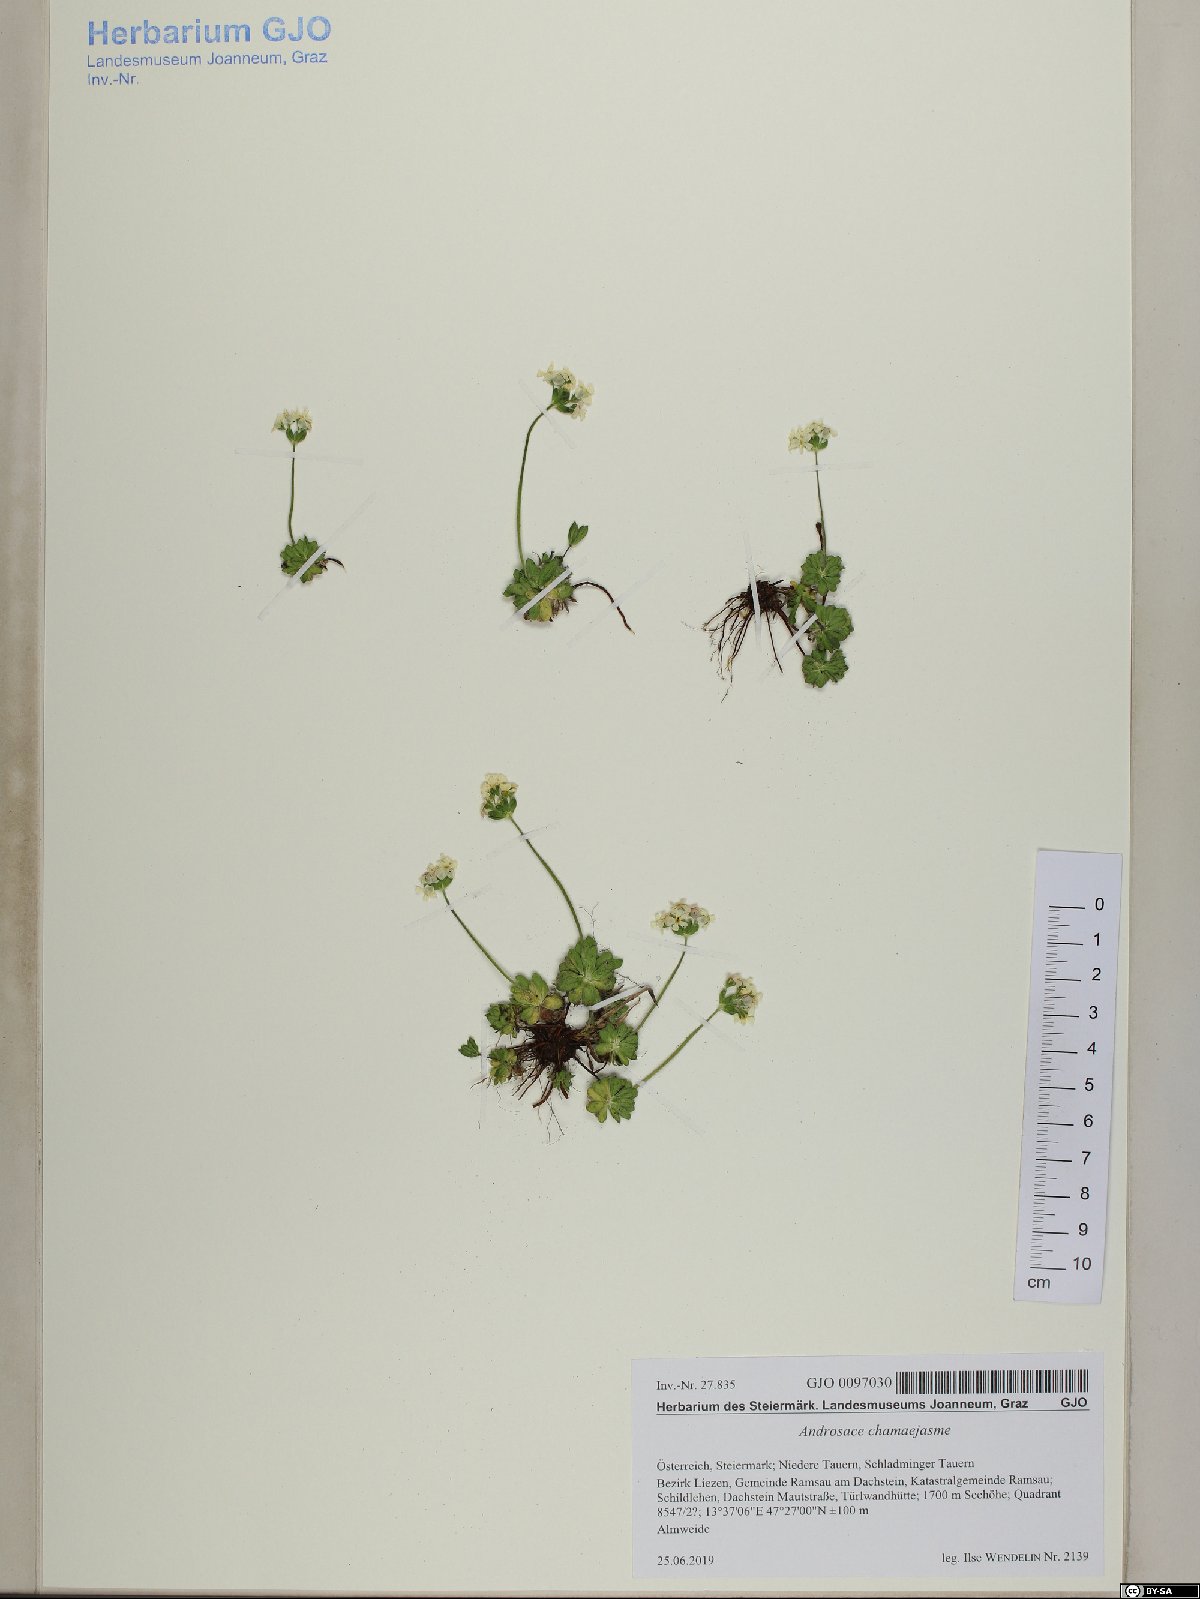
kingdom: Plantae
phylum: Tracheophyta
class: Magnoliopsida
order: Ericales
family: Primulaceae
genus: Androsace
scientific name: Androsace chamaejasme
